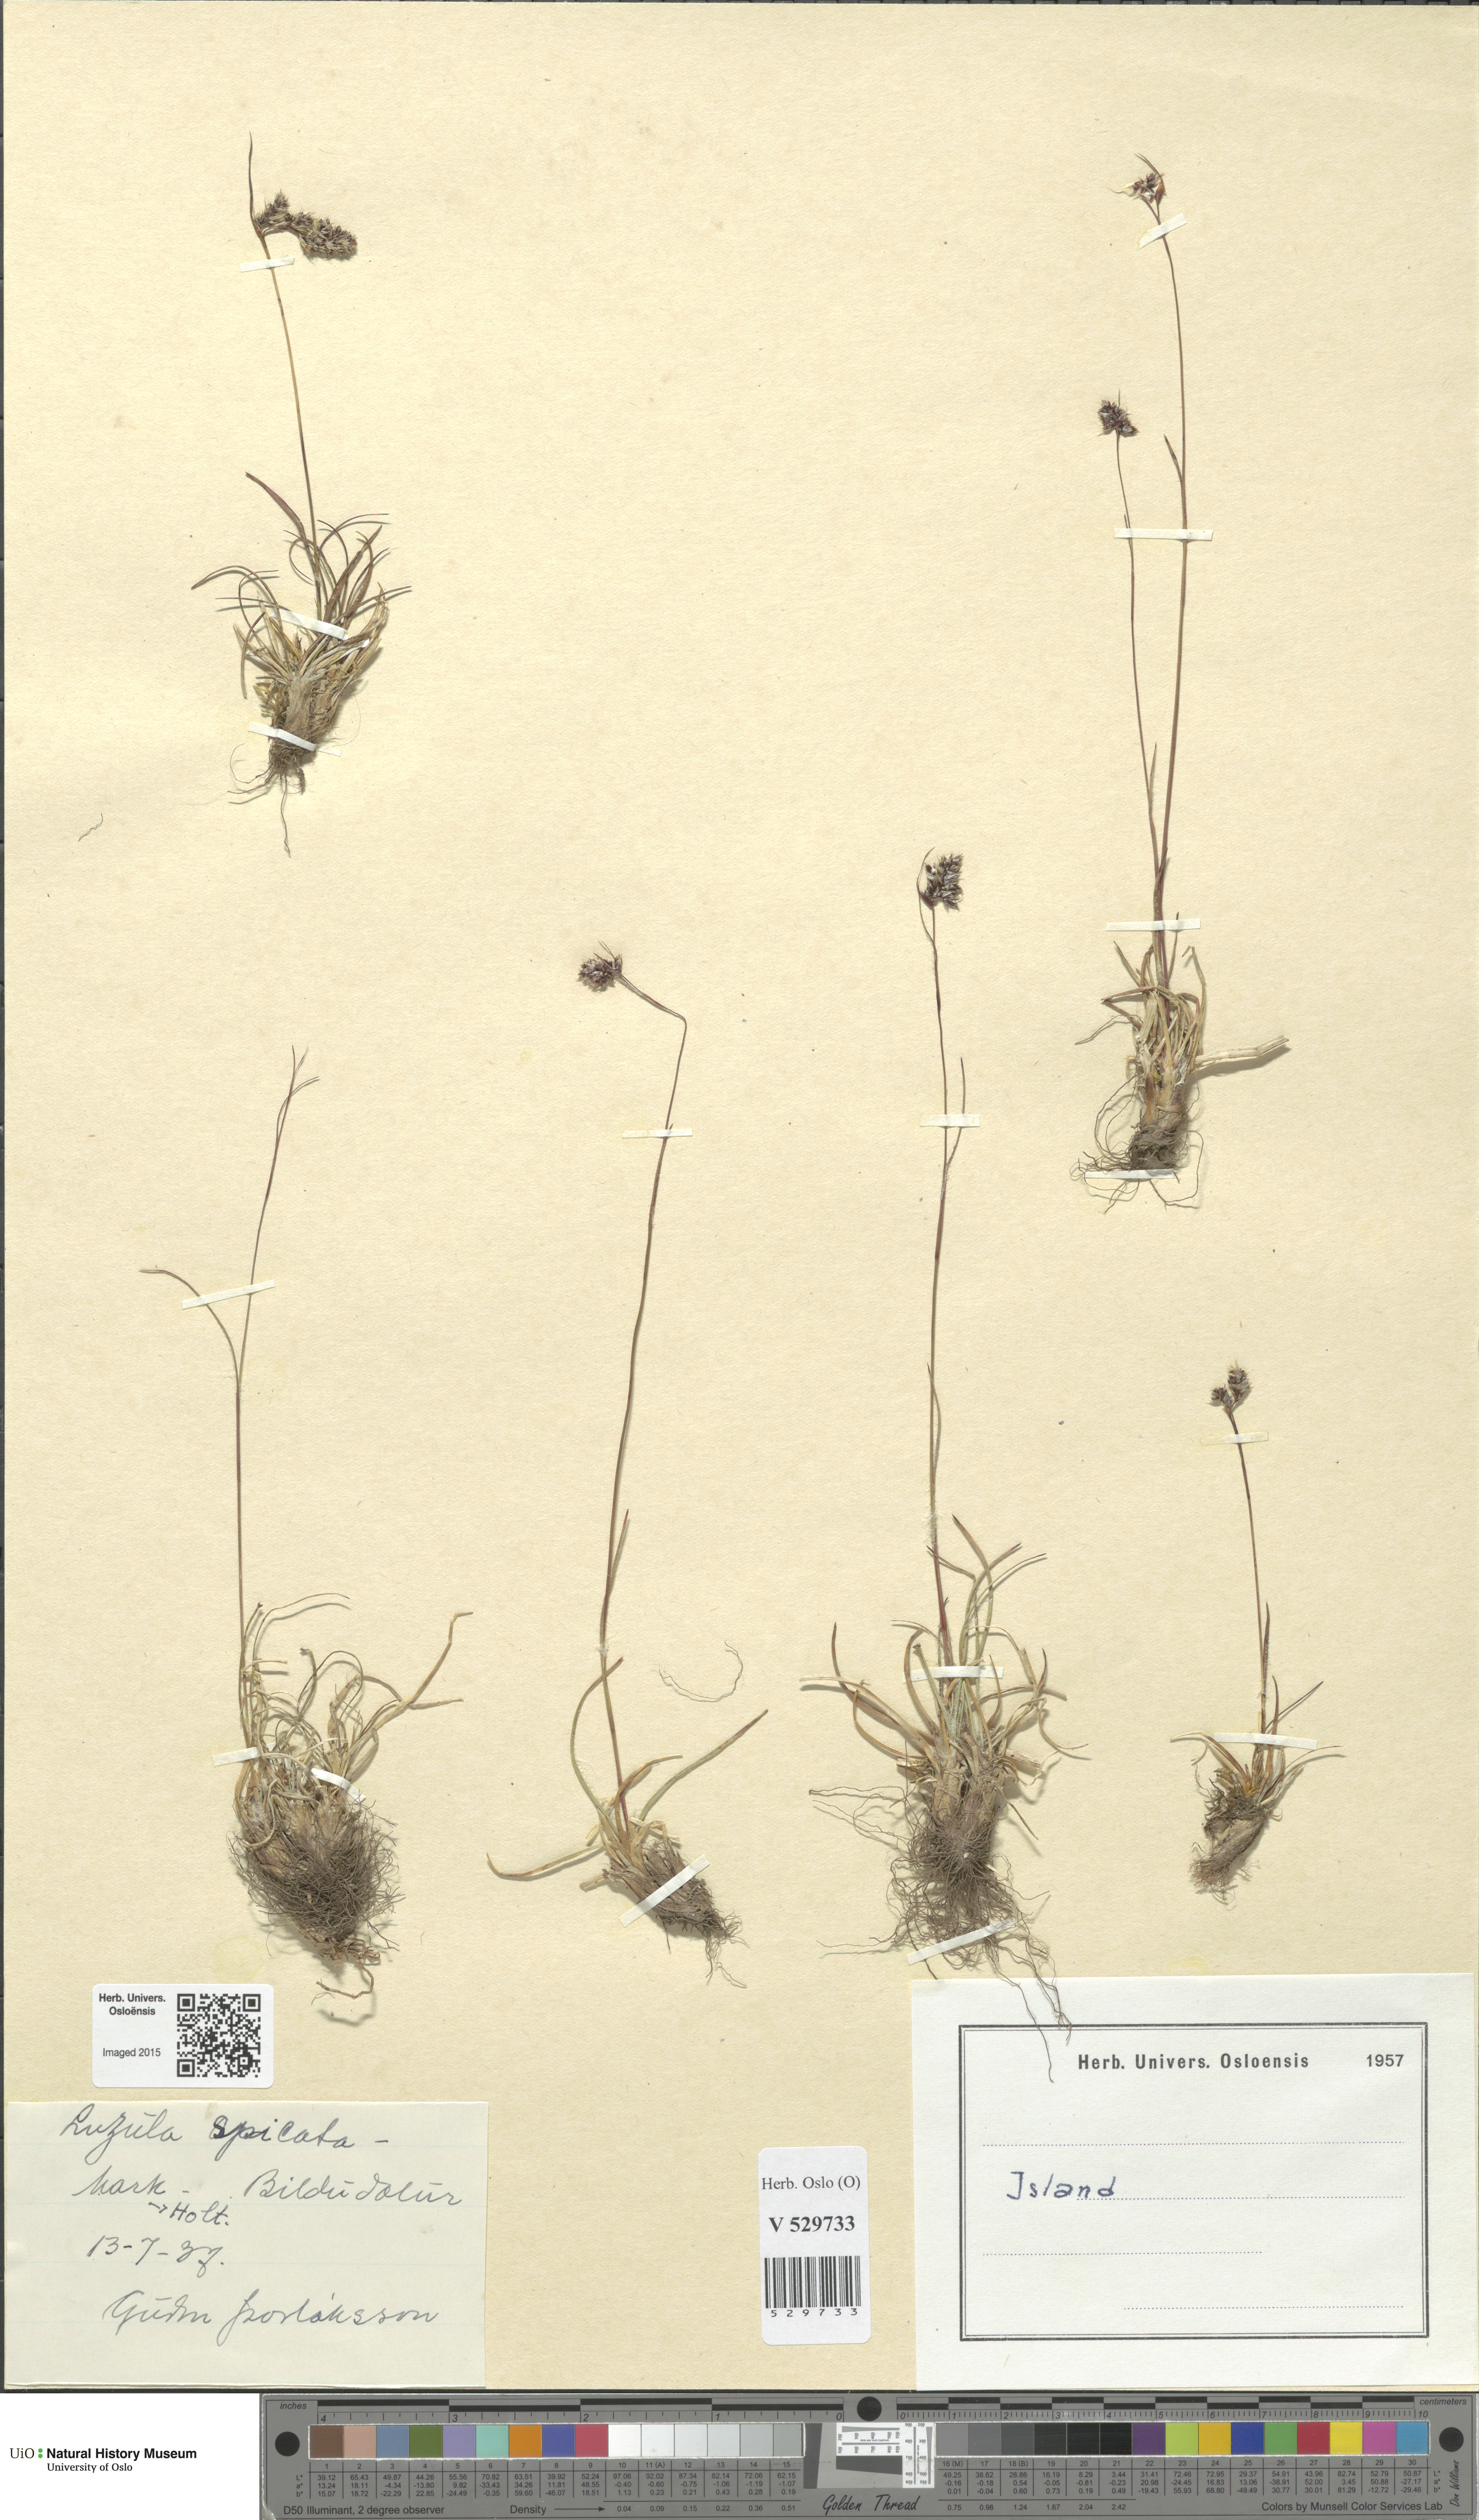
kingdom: Plantae
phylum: Tracheophyta
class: Liliopsida
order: Poales
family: Juncaceae
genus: Luzula
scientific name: Luzula spicata
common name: Spiked wood-rush
